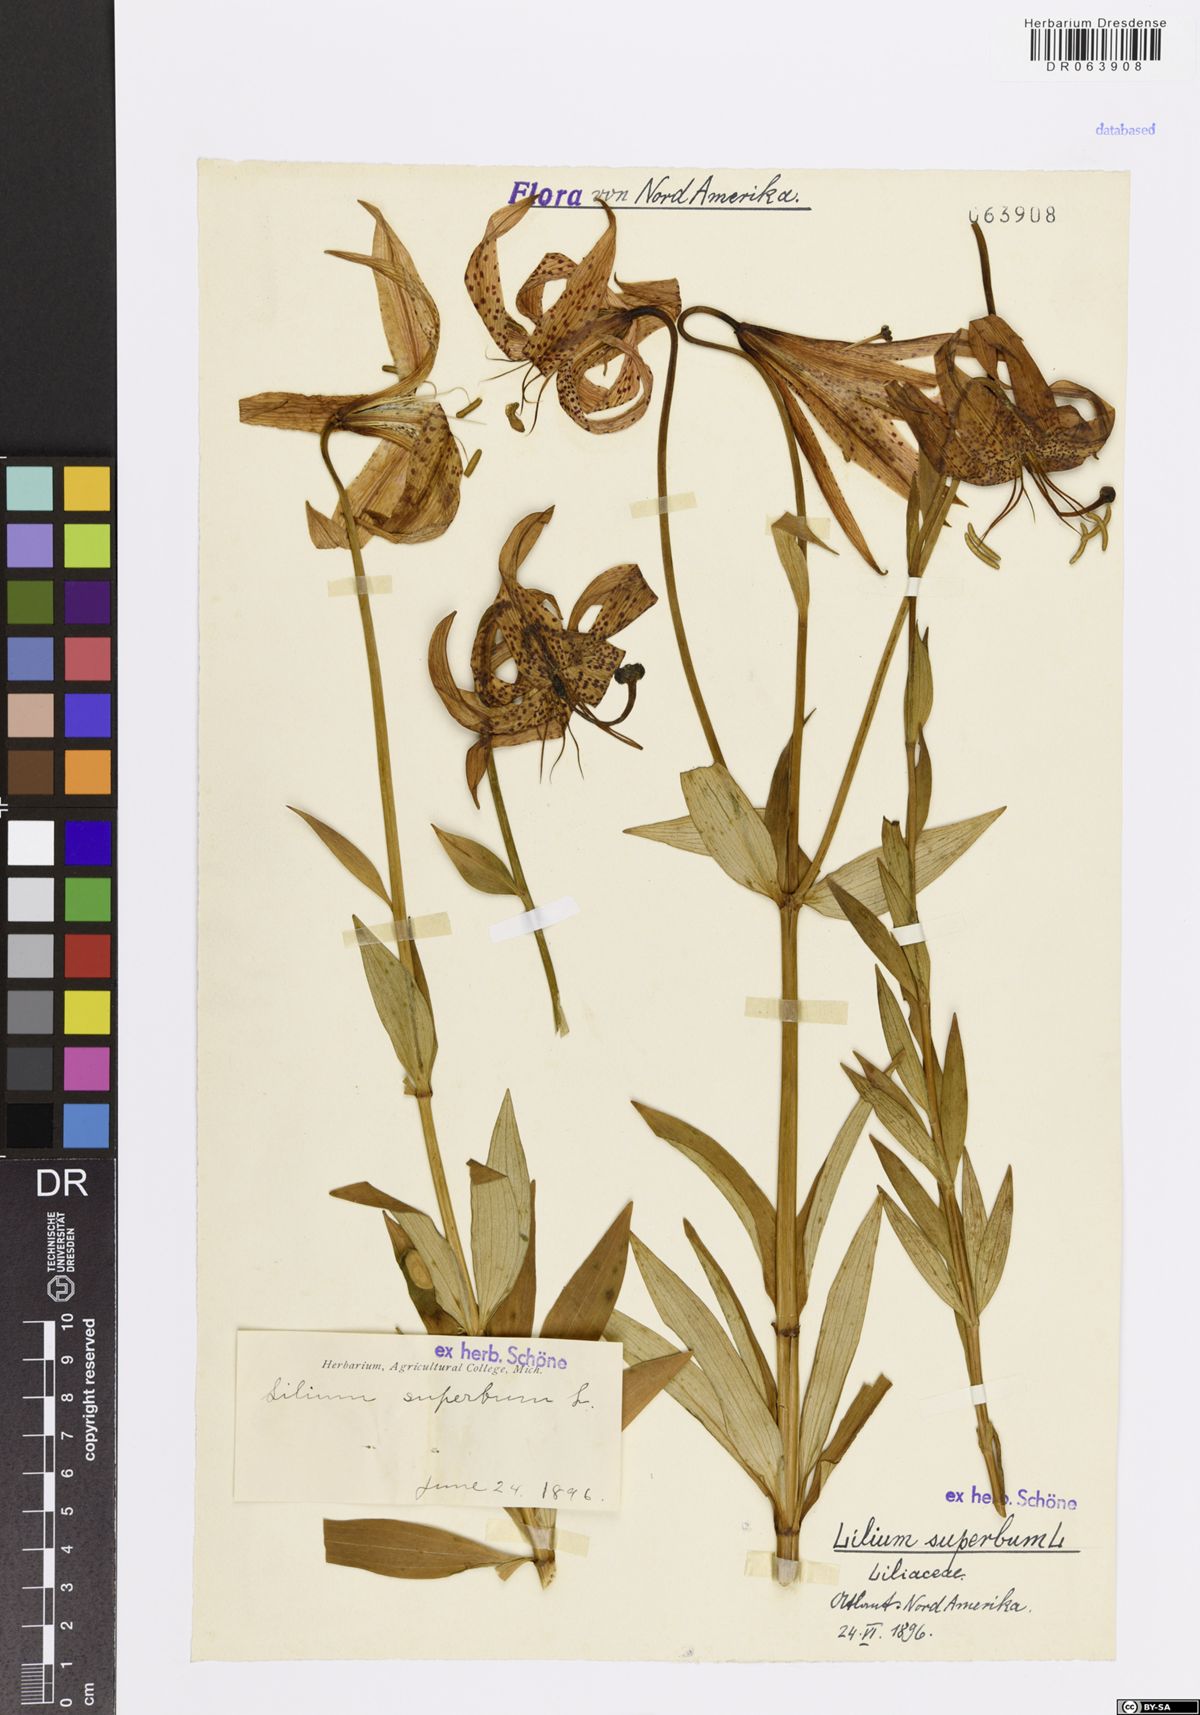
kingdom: Plantae
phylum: Tracheophyta
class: Liliopsida
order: Liliales
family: Liliaceae
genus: Lilium
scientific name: Lilium superbum
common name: American turk's-cap lily
